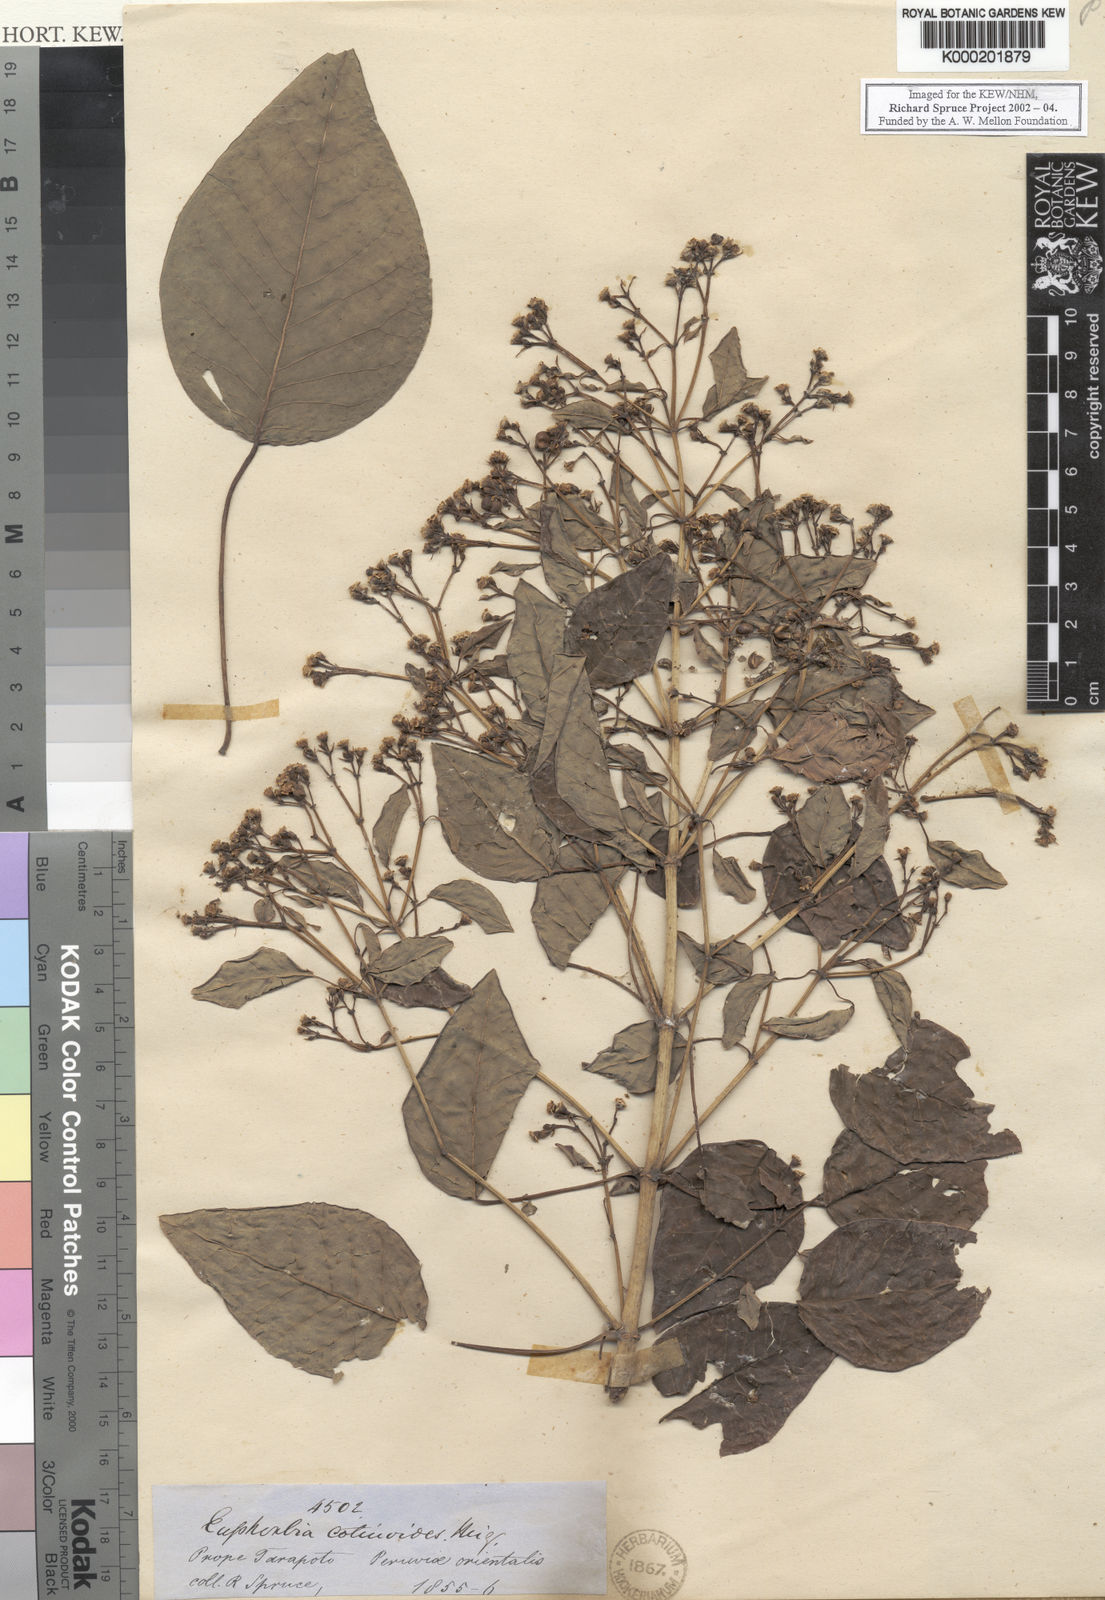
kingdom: Plantae
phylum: Tracheophyta
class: Magnoliopsida
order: Malpighiales
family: Euphorbiaceae
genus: Euphorbia
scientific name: Euphorbia cotinifolia
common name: Tropical smokebush
